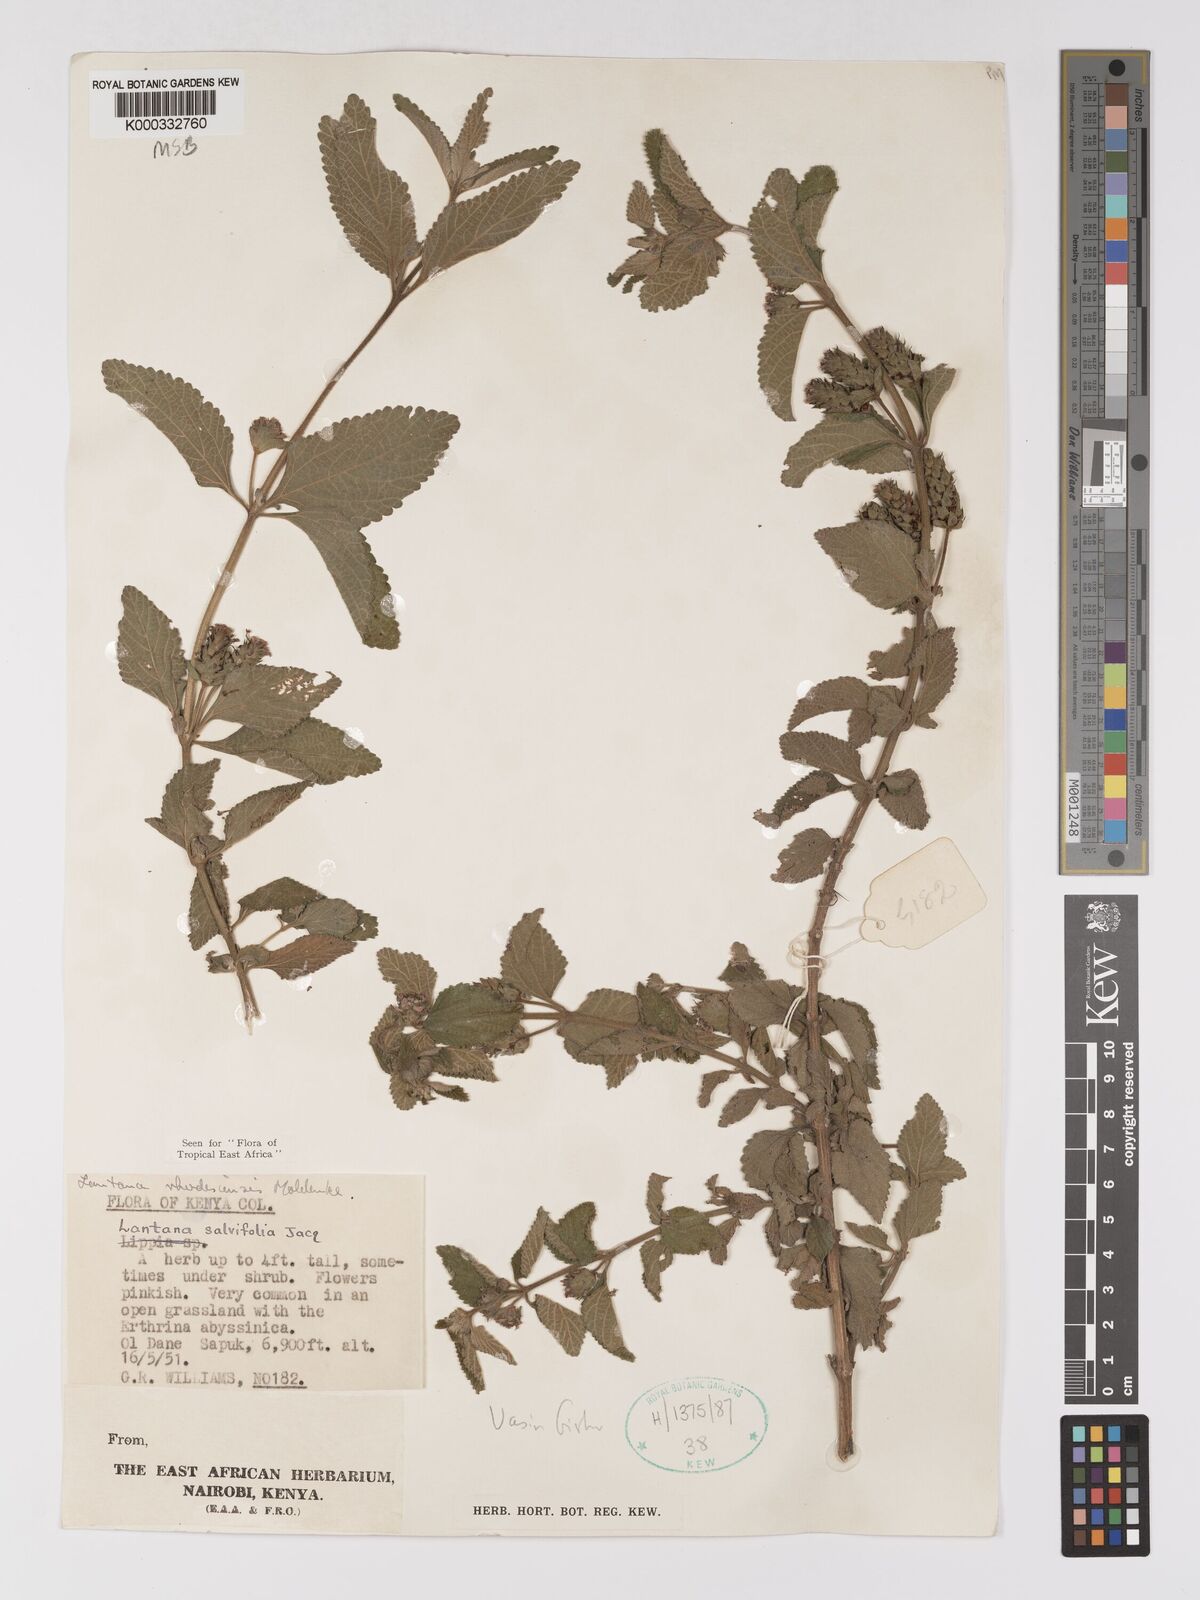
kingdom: Plantae
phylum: Tracheophyta
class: Magnoliopsida
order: Lamiales
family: Verbenaceae
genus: Lantana
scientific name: Lantana ukambensis
